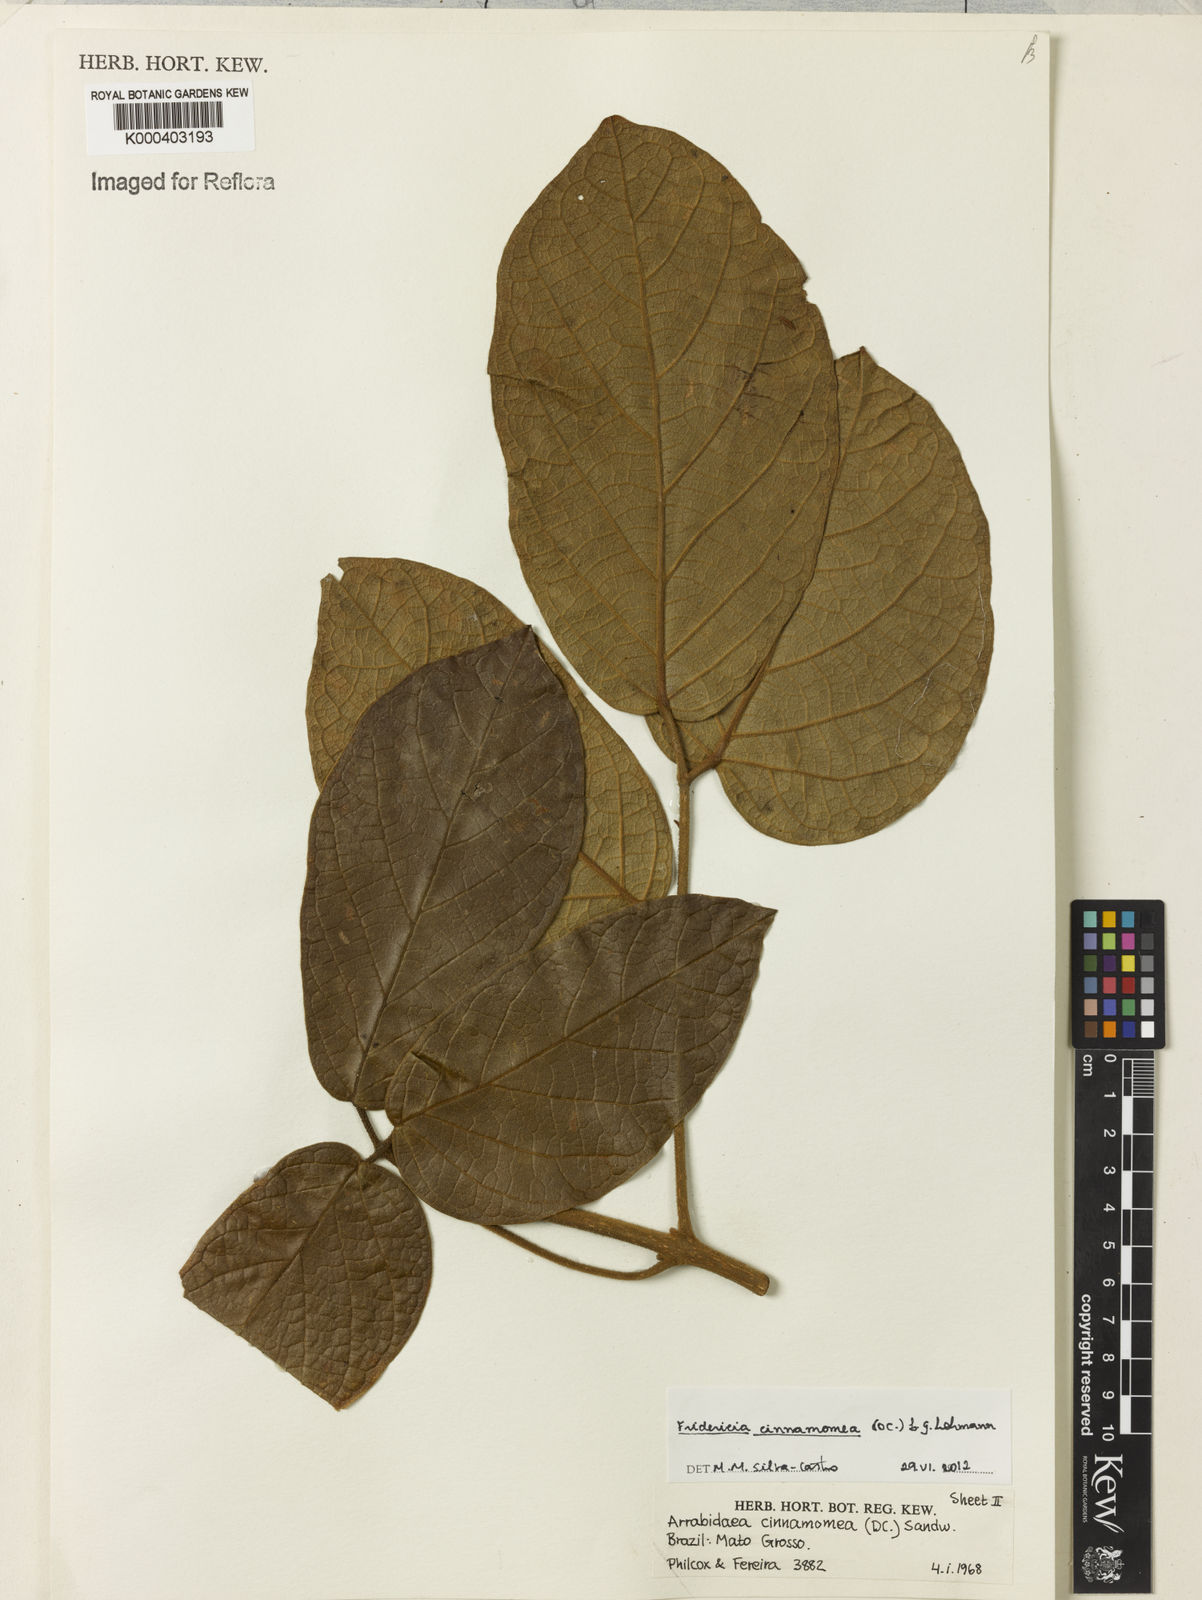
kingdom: Plantae
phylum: Tracheophyta
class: Magnoliopsida
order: Lamiales
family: Bignoniaceae
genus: Fridericia
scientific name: Fridericia cinnamomea
